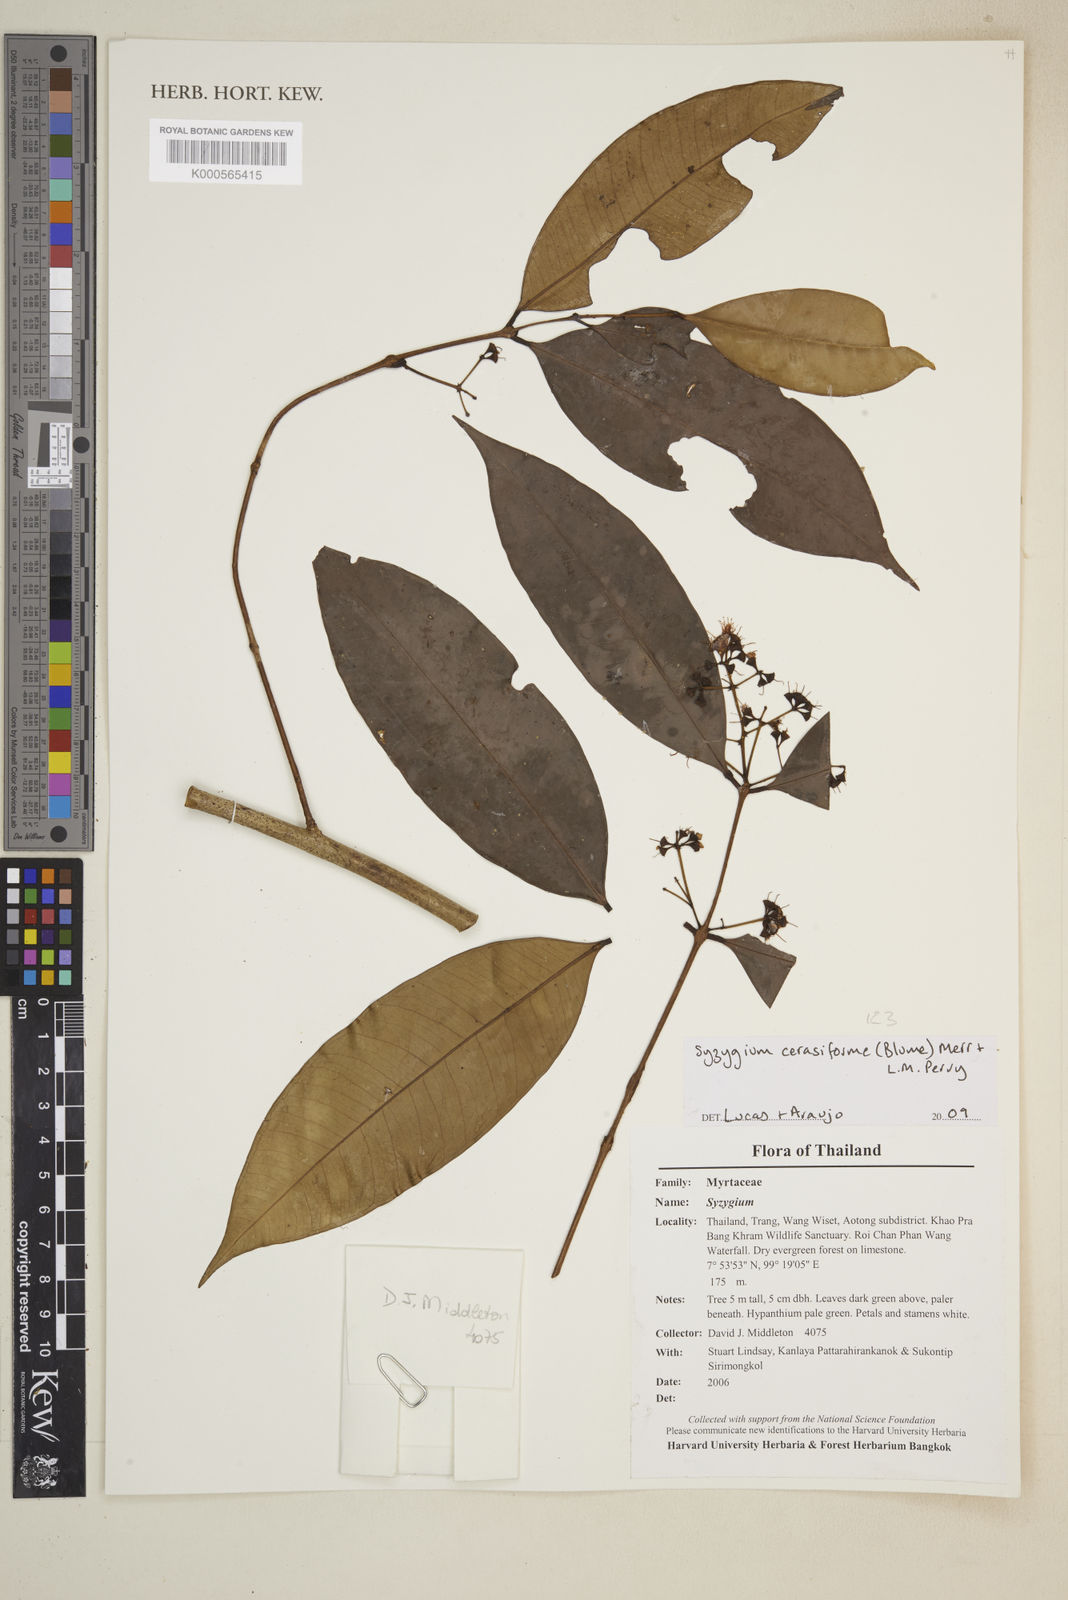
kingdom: Plantae
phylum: Tracheophyta
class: Magnoliopsida
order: Myrtales
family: Myrtaceae
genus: Syzygium
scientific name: Syzygium racemosum
